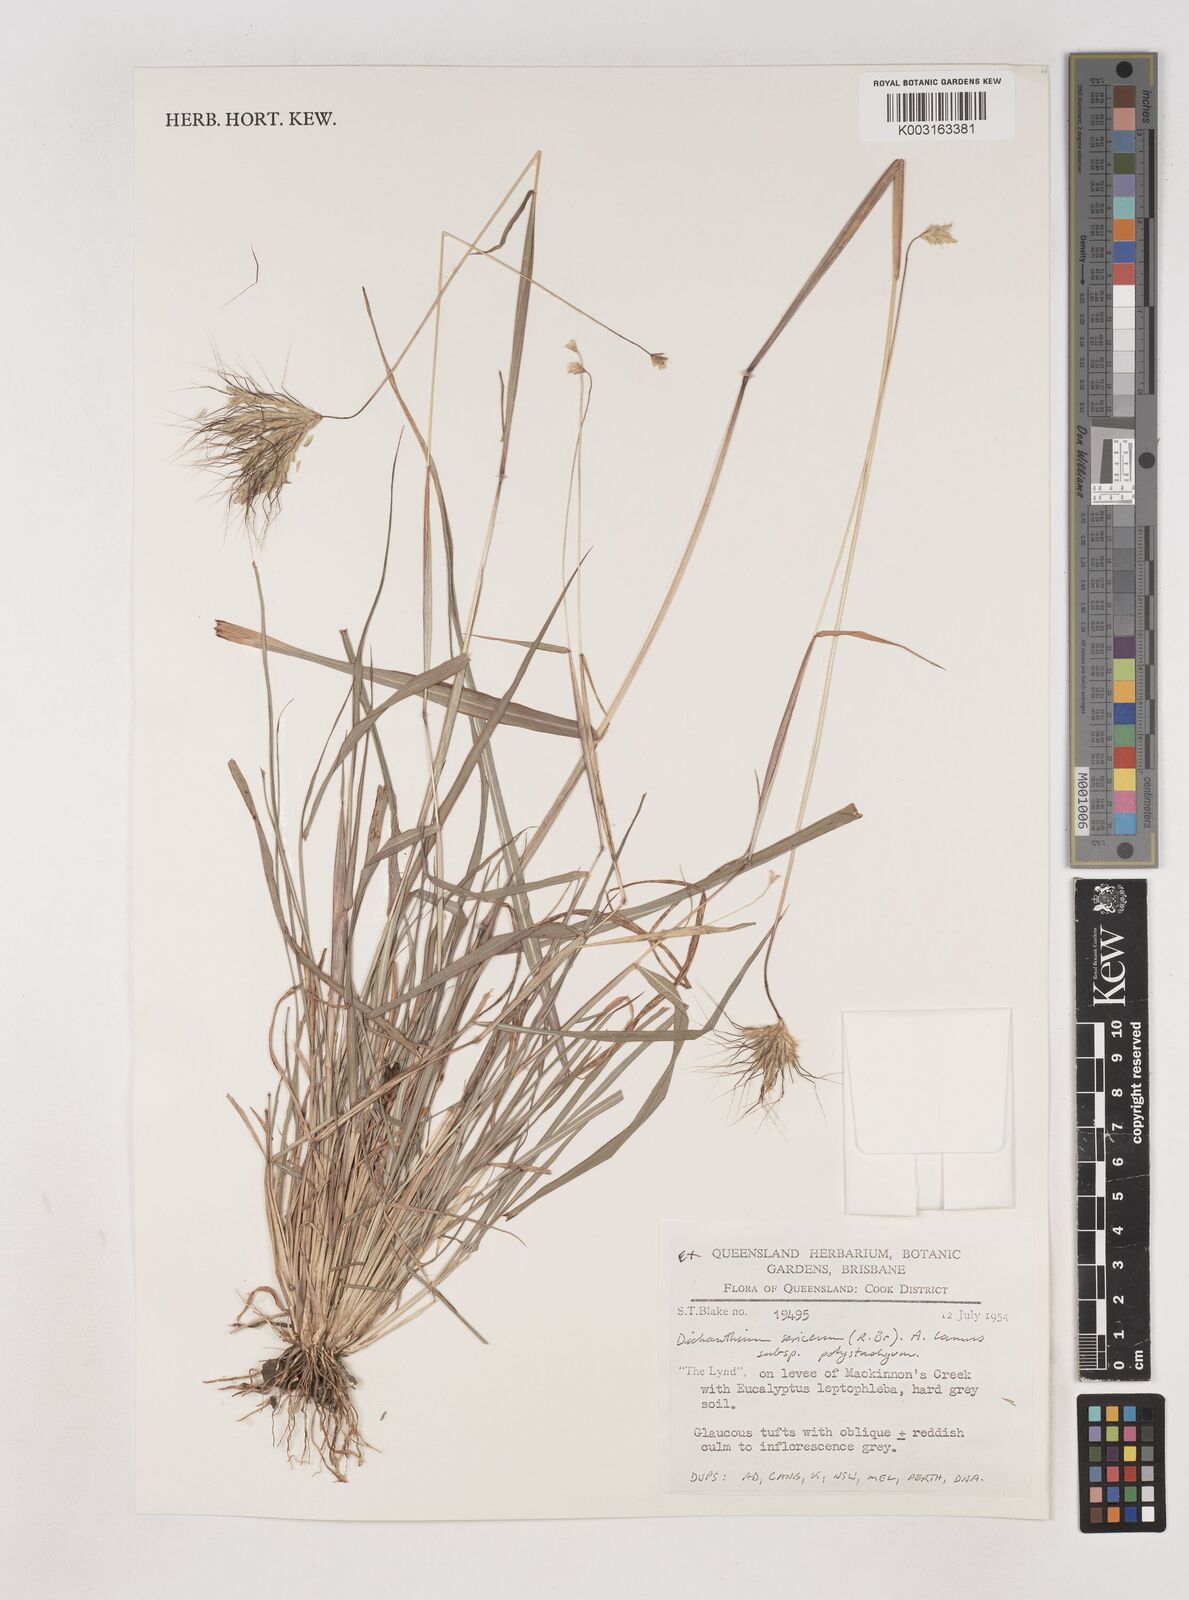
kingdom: Plantae
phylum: Tracheophyta
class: Liliopsida
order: Poales
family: Poaceae
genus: Dichanthium
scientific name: Dichanthium sericeum
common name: Silky bluestem
